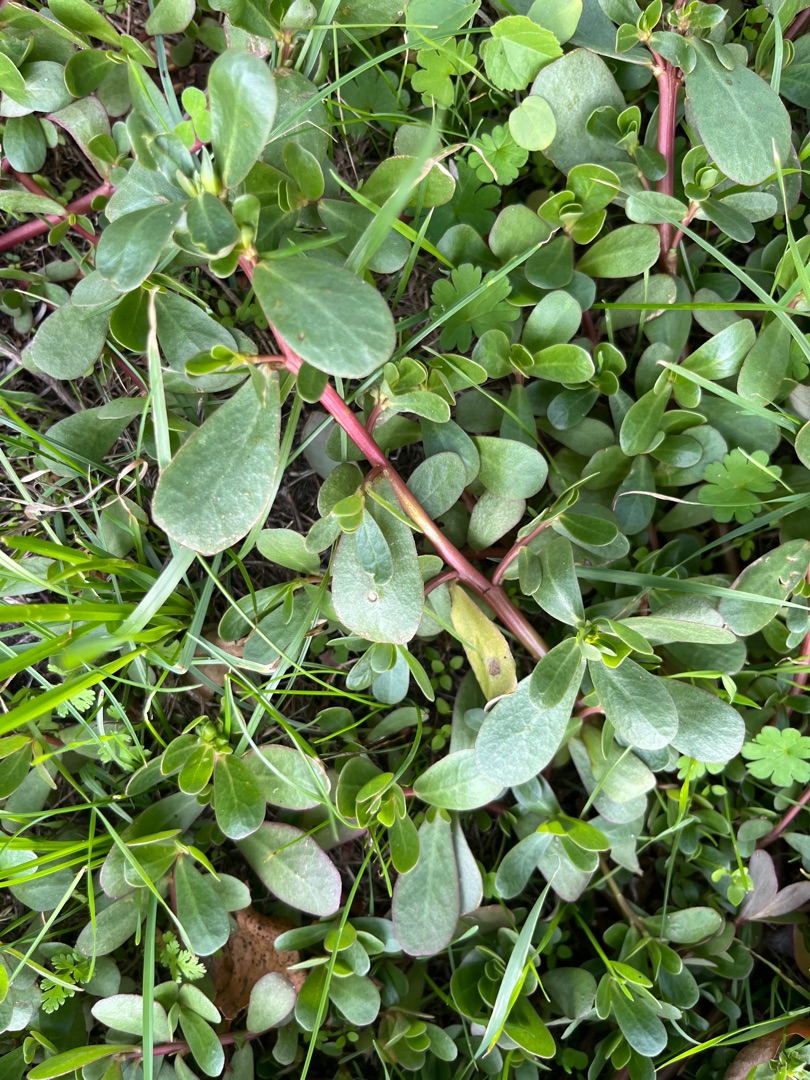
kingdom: Plantae
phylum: Tracheophyta
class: Magnoliopsida
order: Caryophyllales
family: Portulacaceae
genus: Portulaca
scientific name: Portulaca oleracea
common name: Portulak
